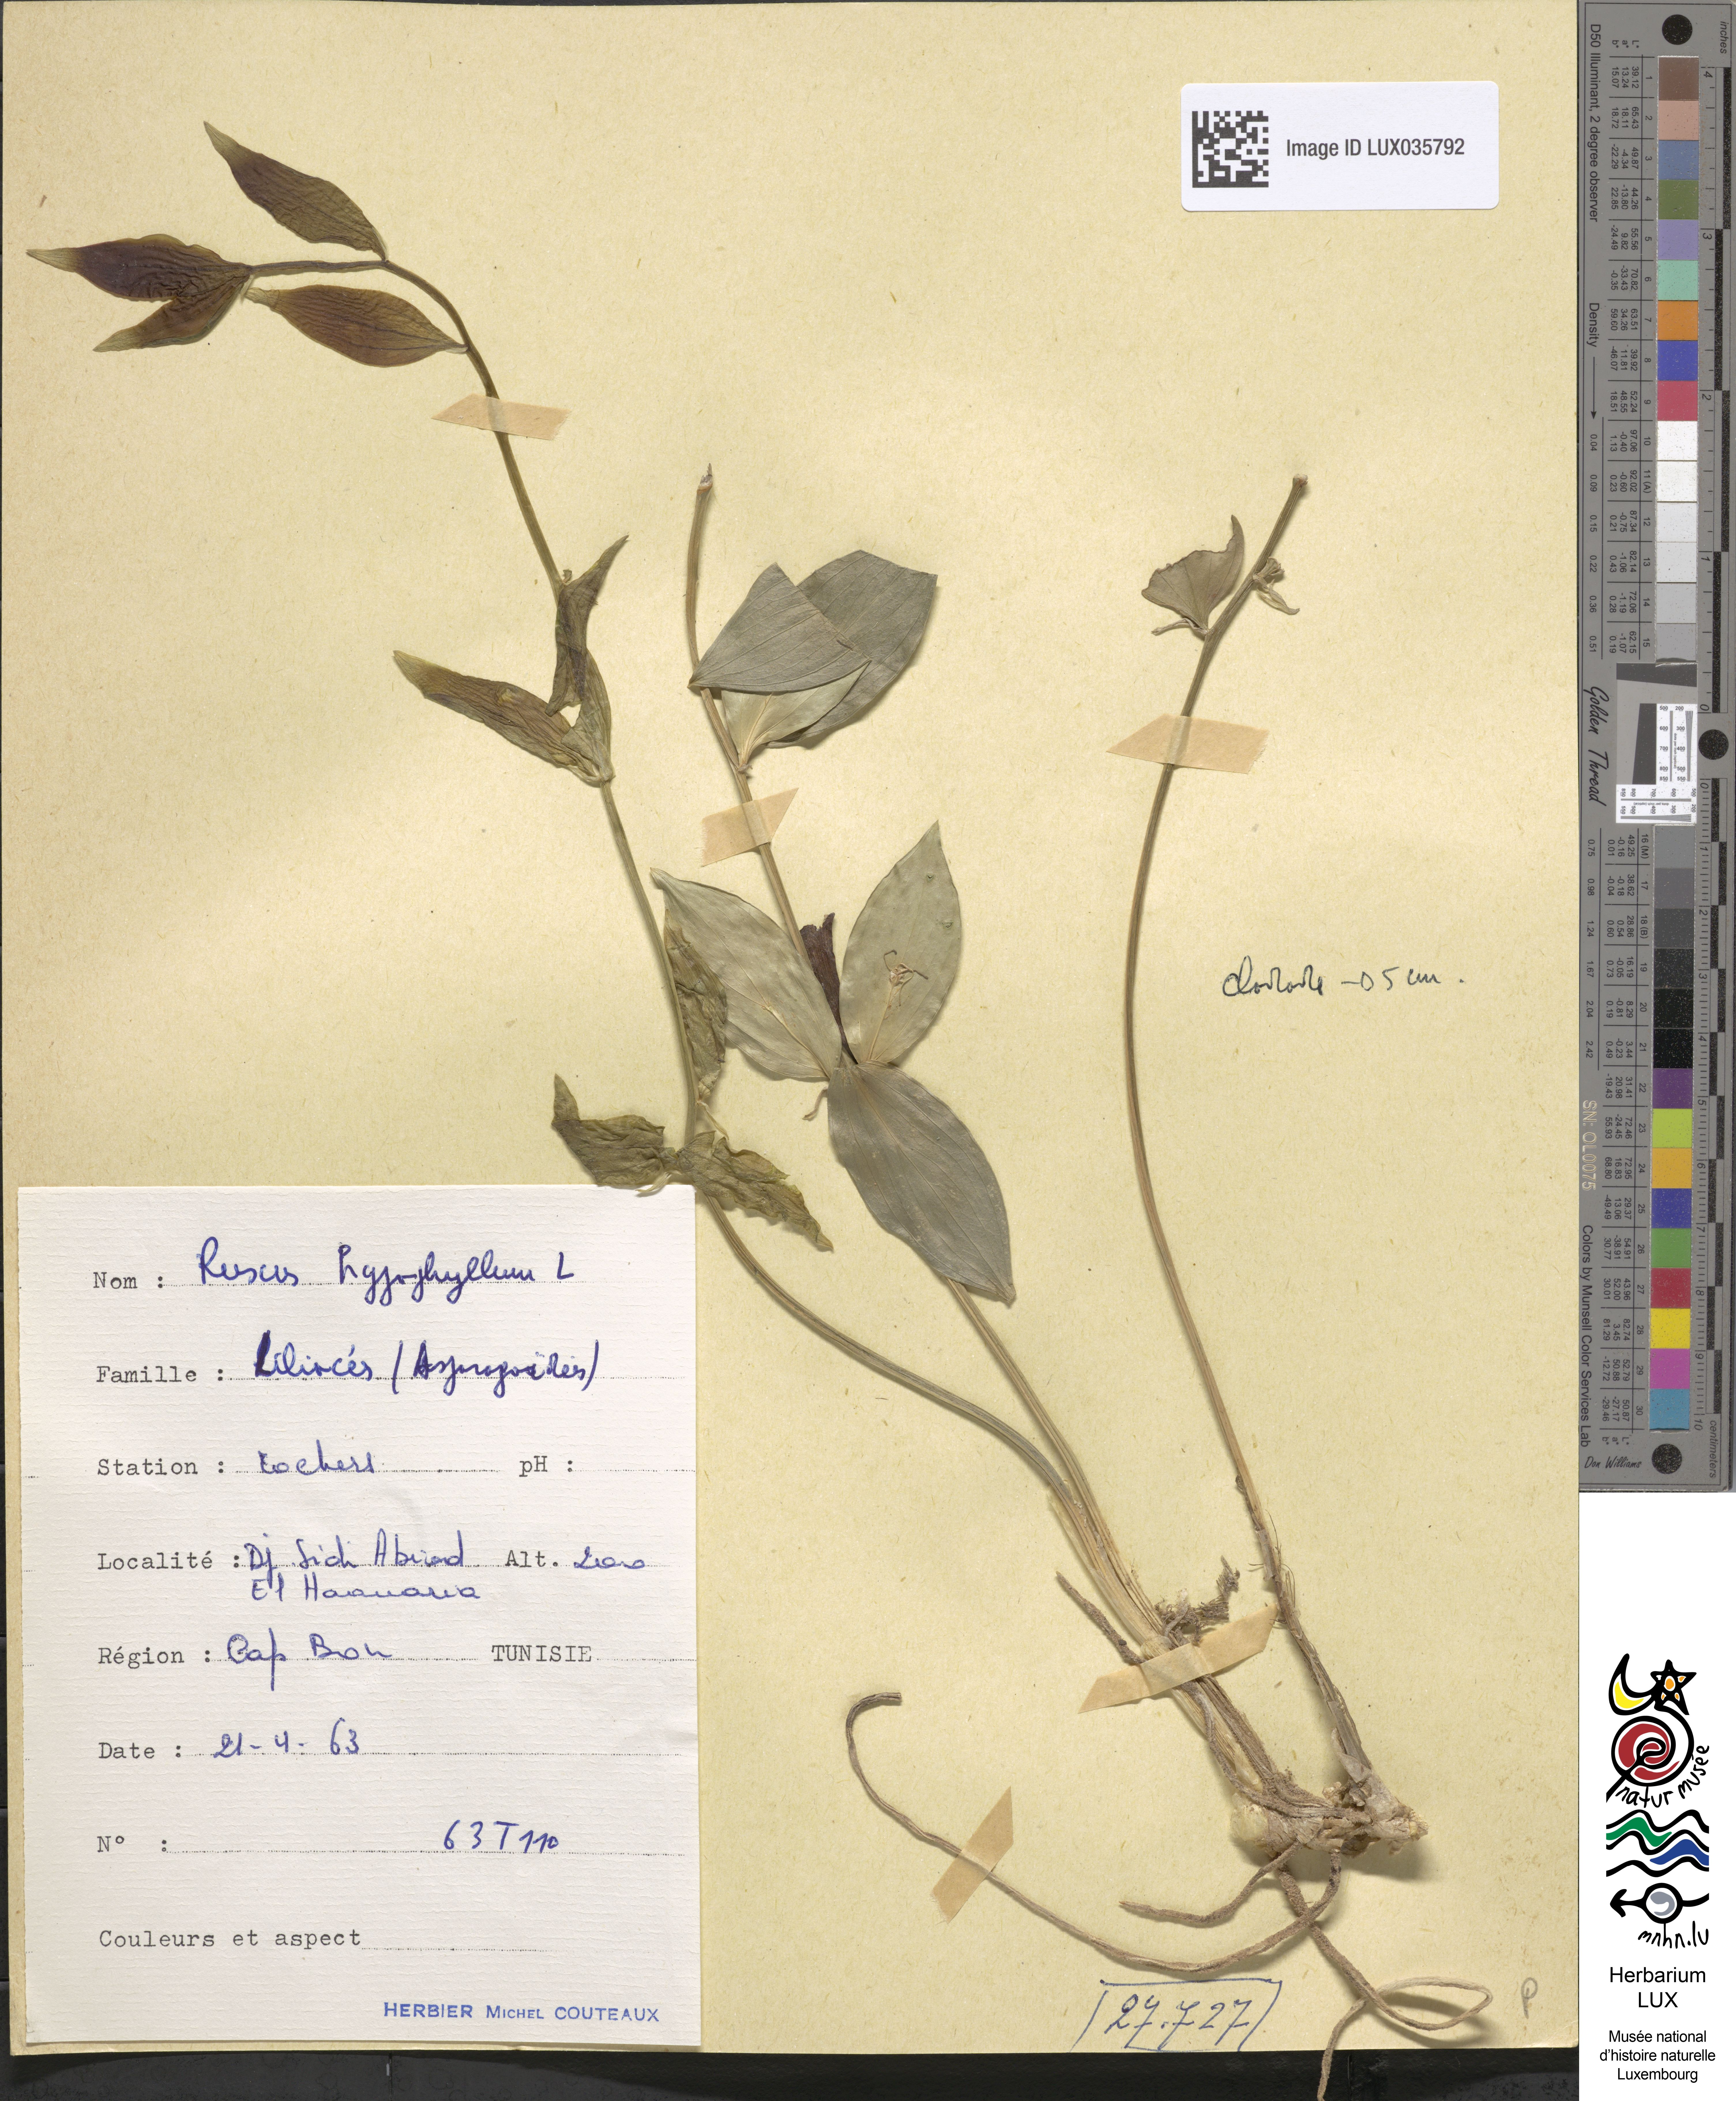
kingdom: Plantae
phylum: Tracheophyta
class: Liliopsida
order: Asparagales
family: Asparagaceae
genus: Ruscus
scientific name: Ruscus hypophyllum
